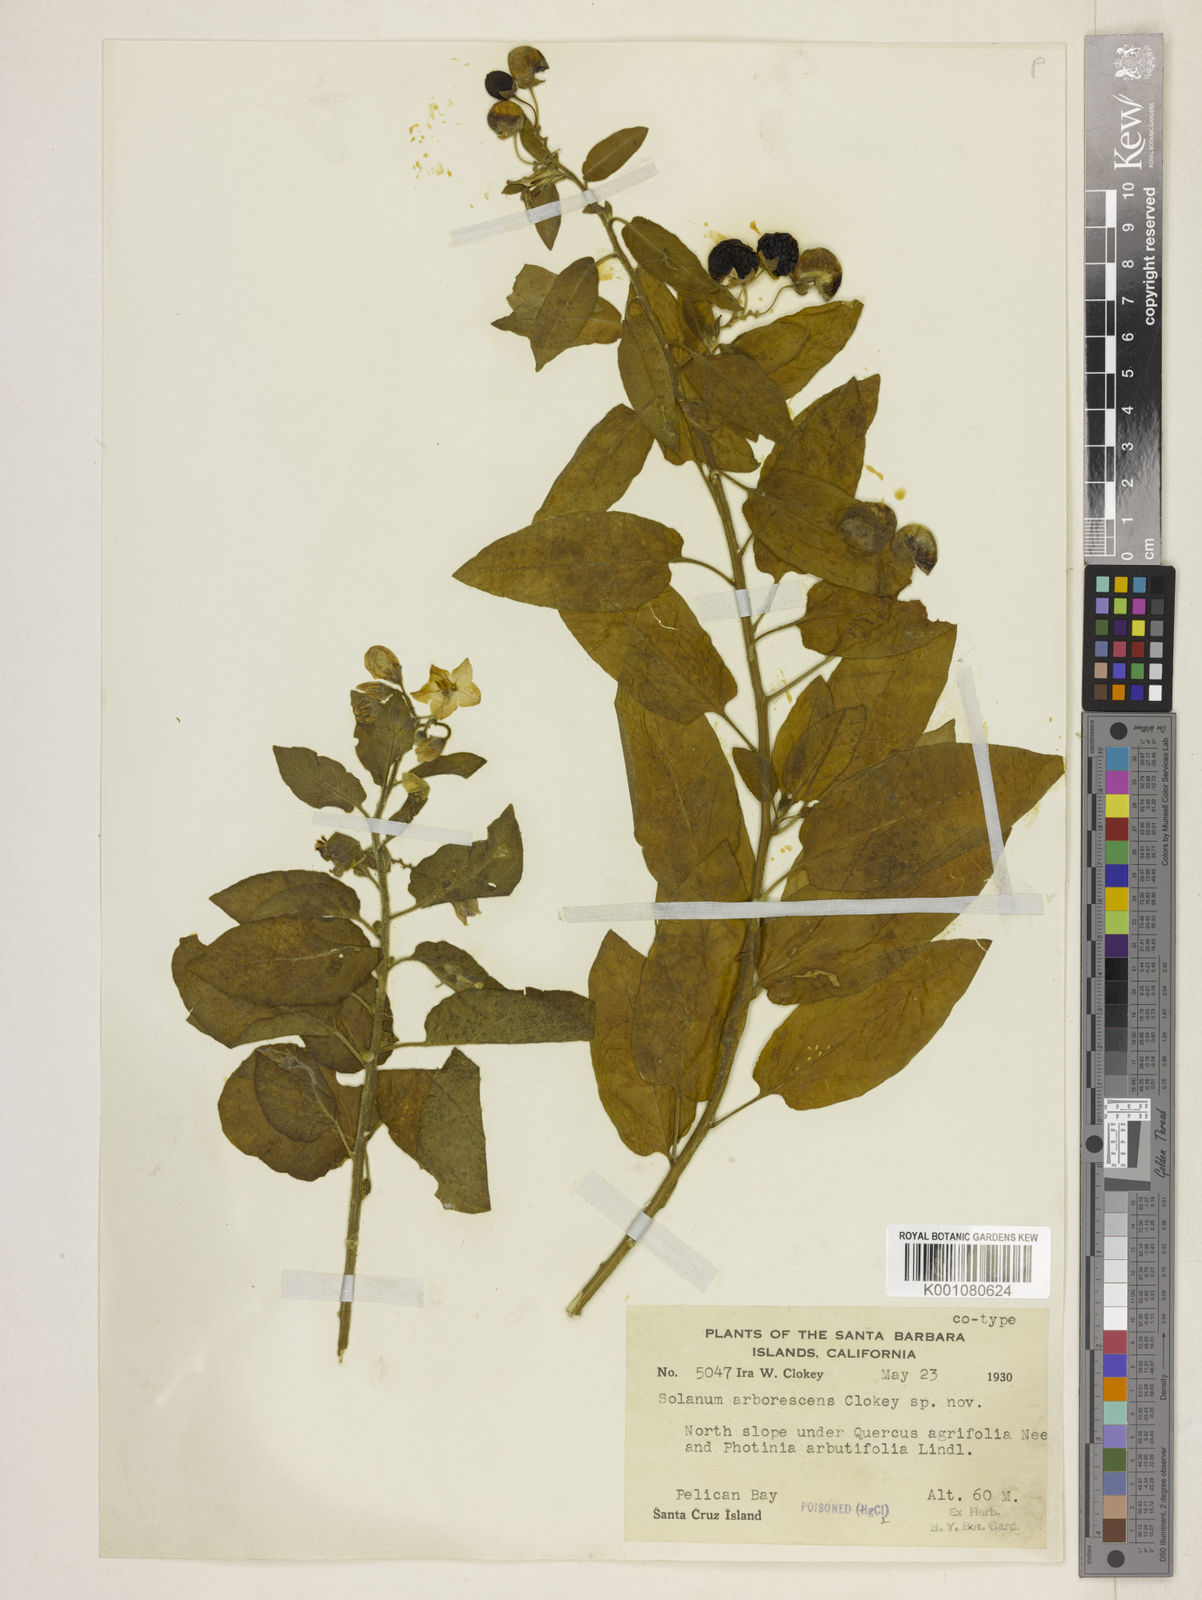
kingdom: Plantae
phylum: Tracheophyta
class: Magnoliopsida
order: Solanales
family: Solanaceae
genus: Solanum
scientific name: Solanum umbelliferum
